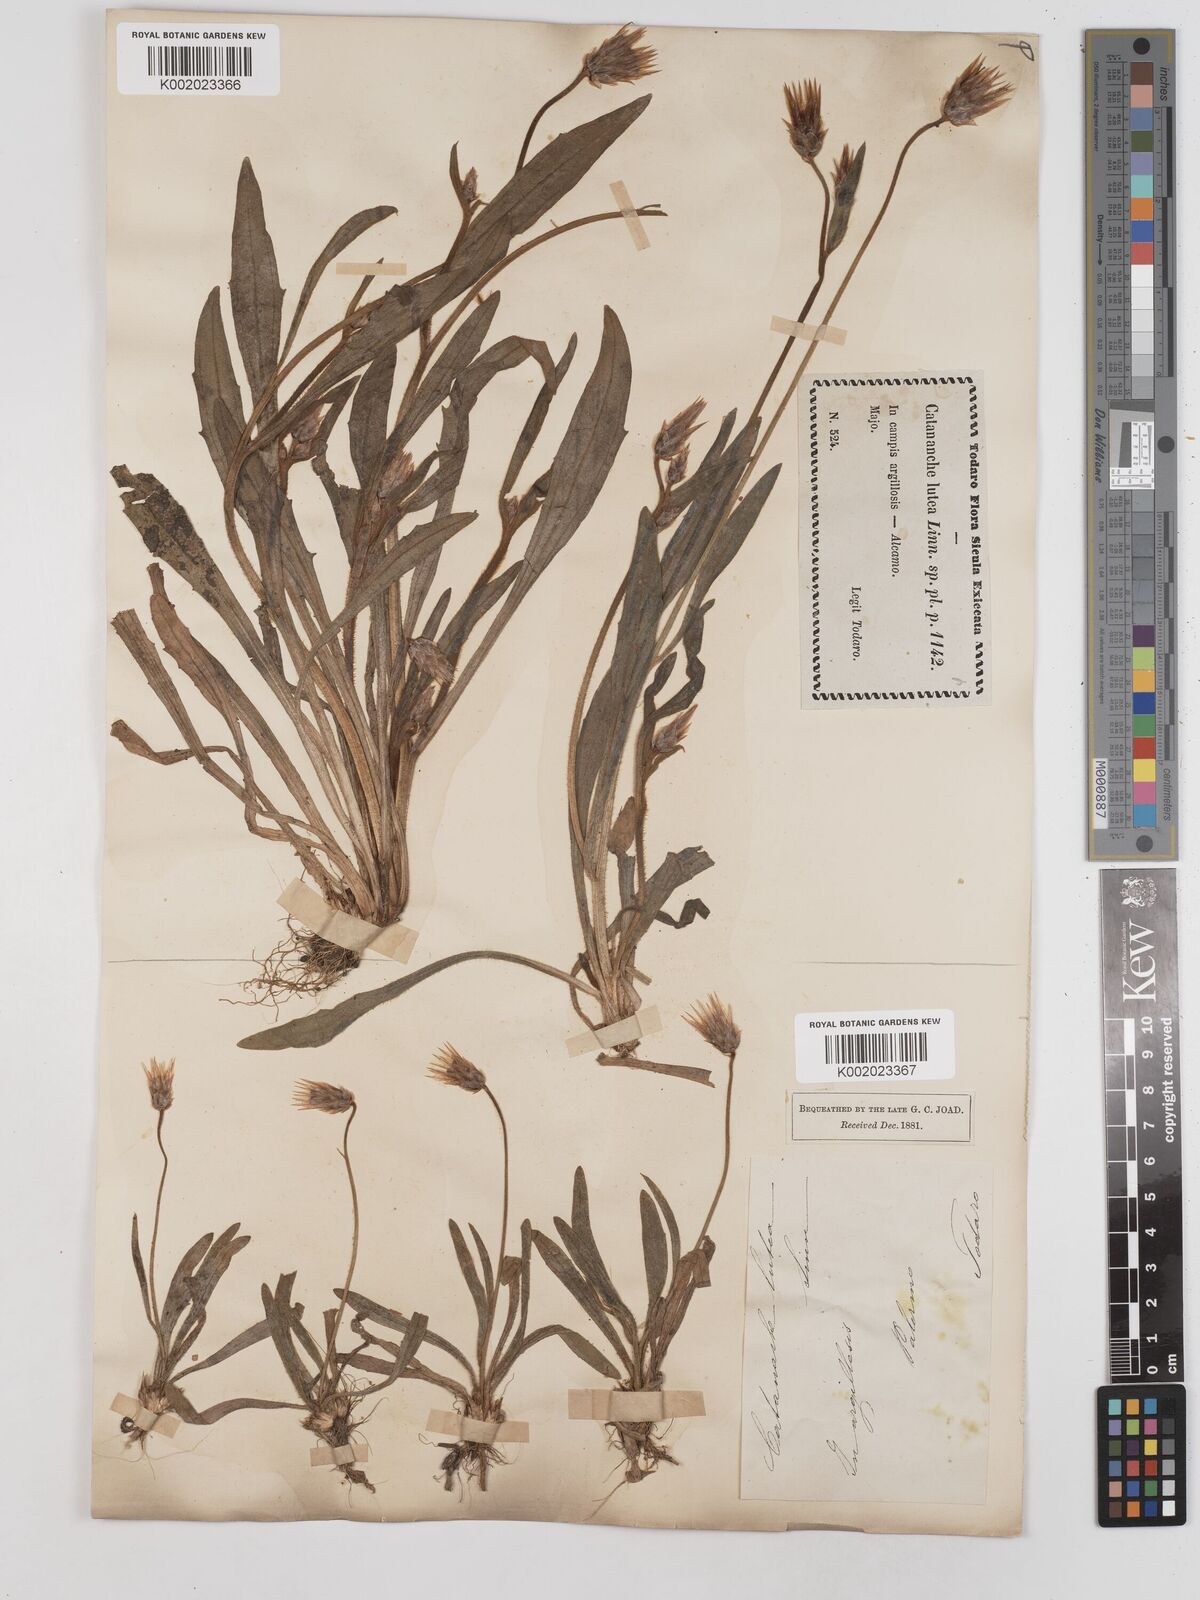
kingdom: Plantae
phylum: Tracheophyta
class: Magnoliopsida
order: Asterales
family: Asteraceae
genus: Catananche
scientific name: Catananche lutea
